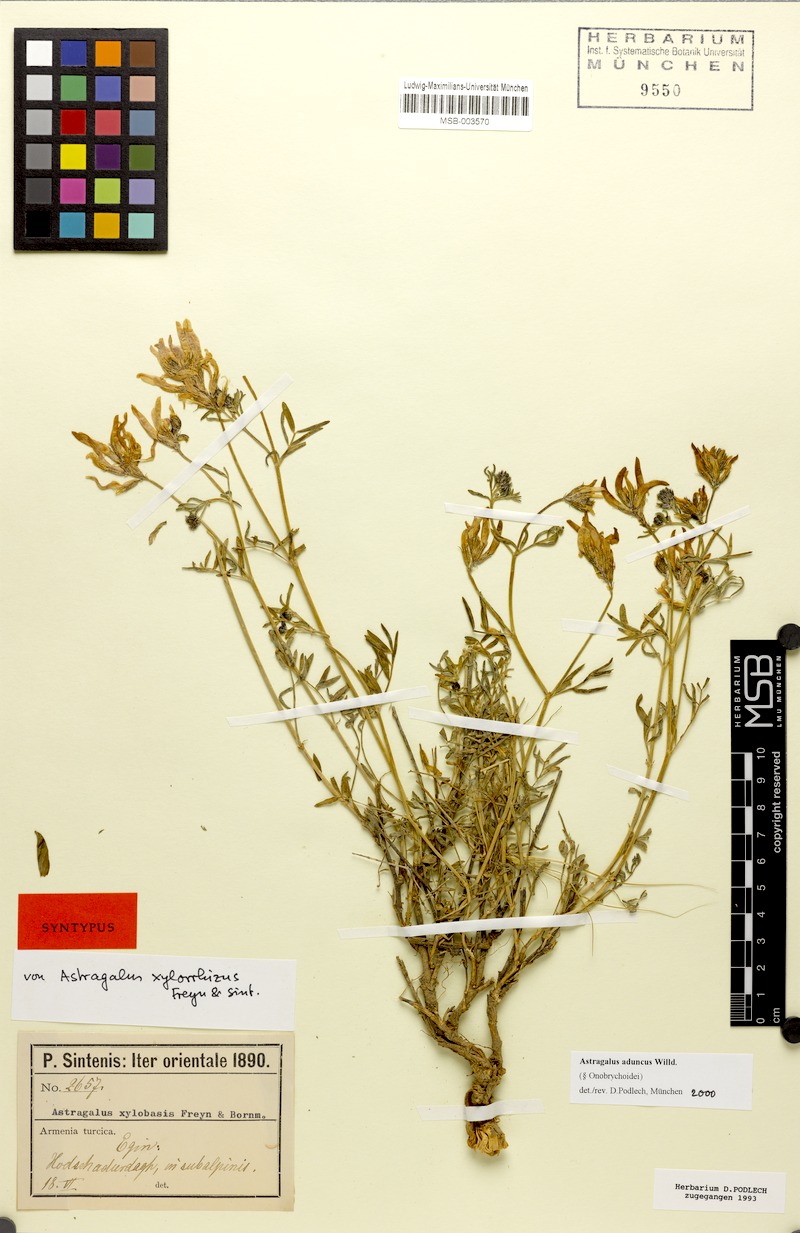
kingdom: Plantae
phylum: Tracheophyta
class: Magnoliopsida
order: Fabales
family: Fabaceae
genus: Astragalus
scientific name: Astragalus aduncus
